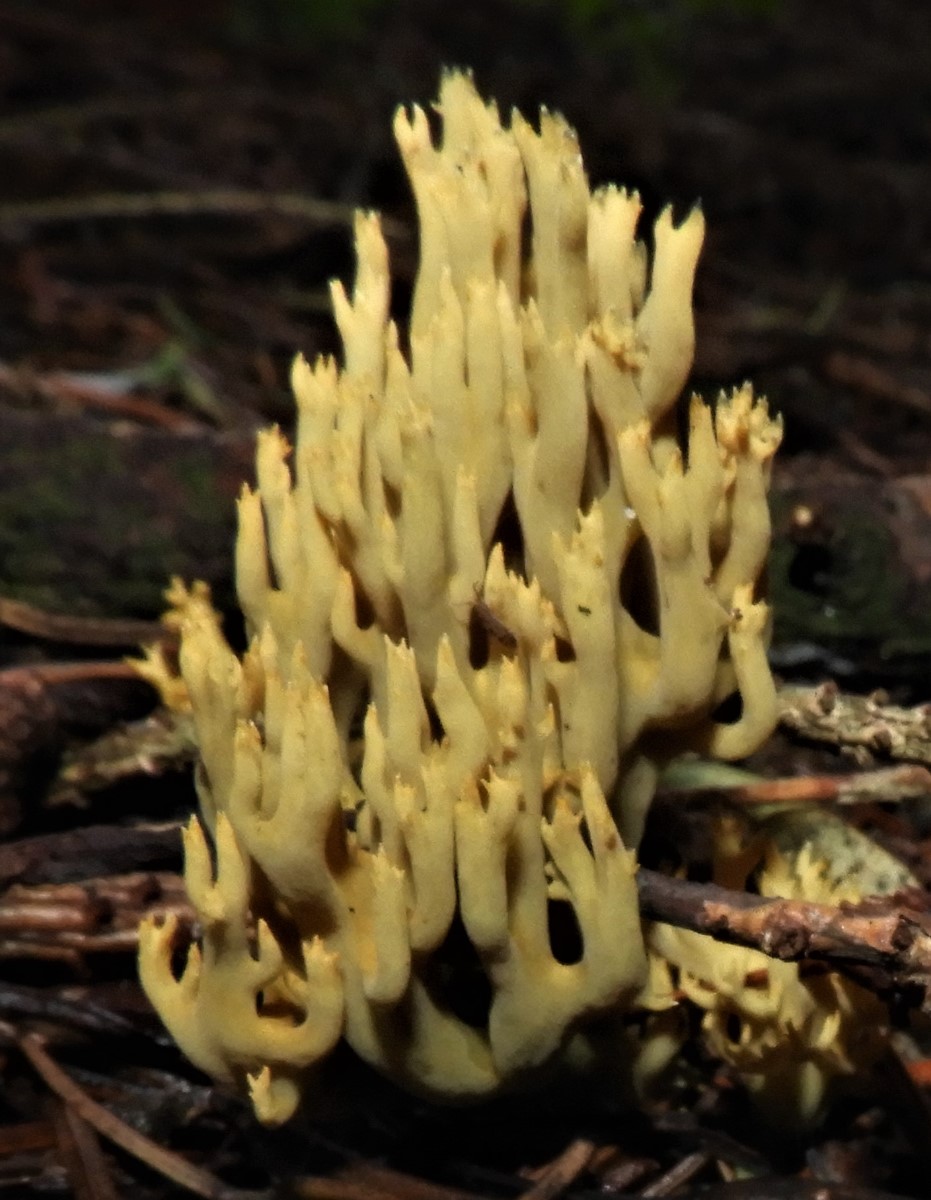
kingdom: Fungi
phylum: Basidiomycota
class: Agaricomycetes
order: Gomphales
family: Gomphaceae
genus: Phaeoclavulina
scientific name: Phaeoclavulina eumorpha
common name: gran-koralsvamp
